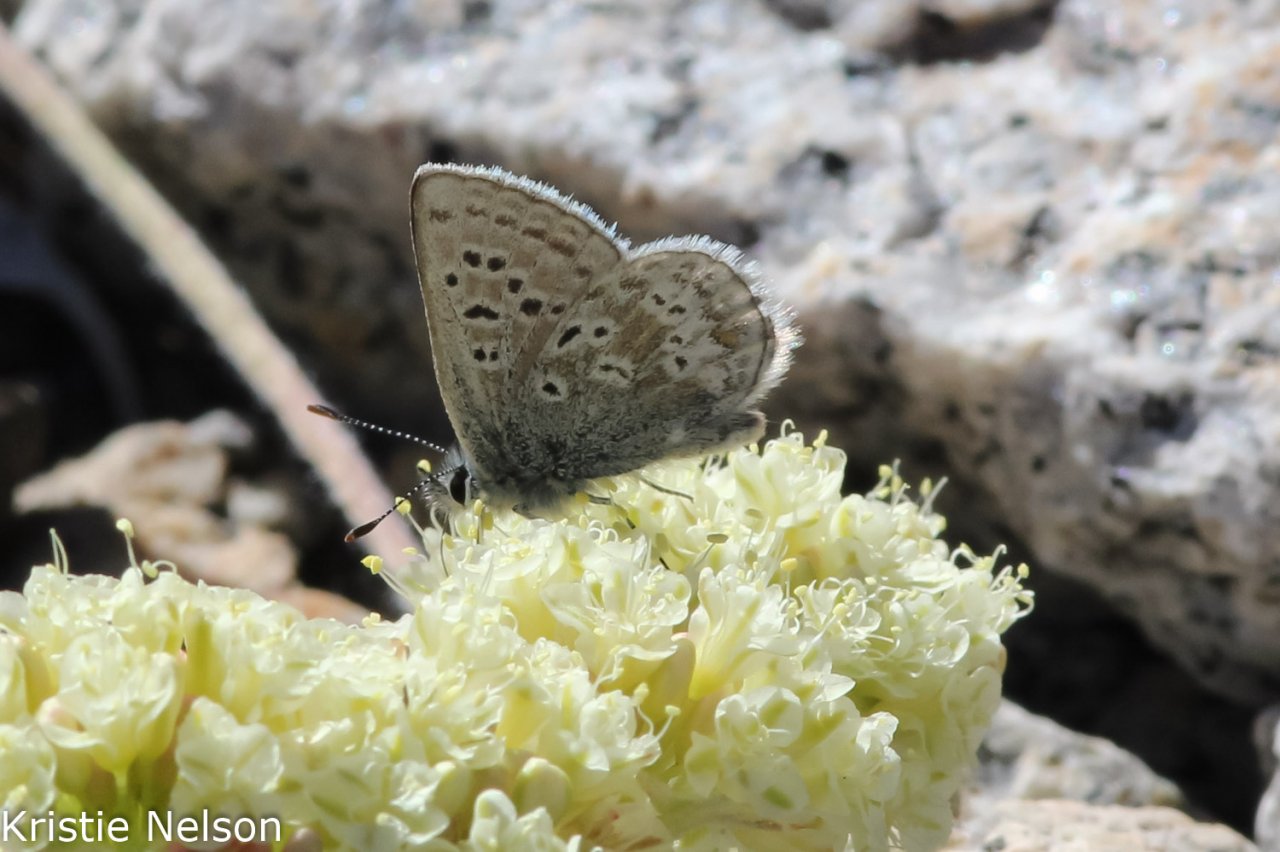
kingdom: Animalia
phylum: Arthropoda
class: Insecta
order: Lepidoptera
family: Lycaenidae
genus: Agriades
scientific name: Agriades glandon
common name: Arctic Blue
